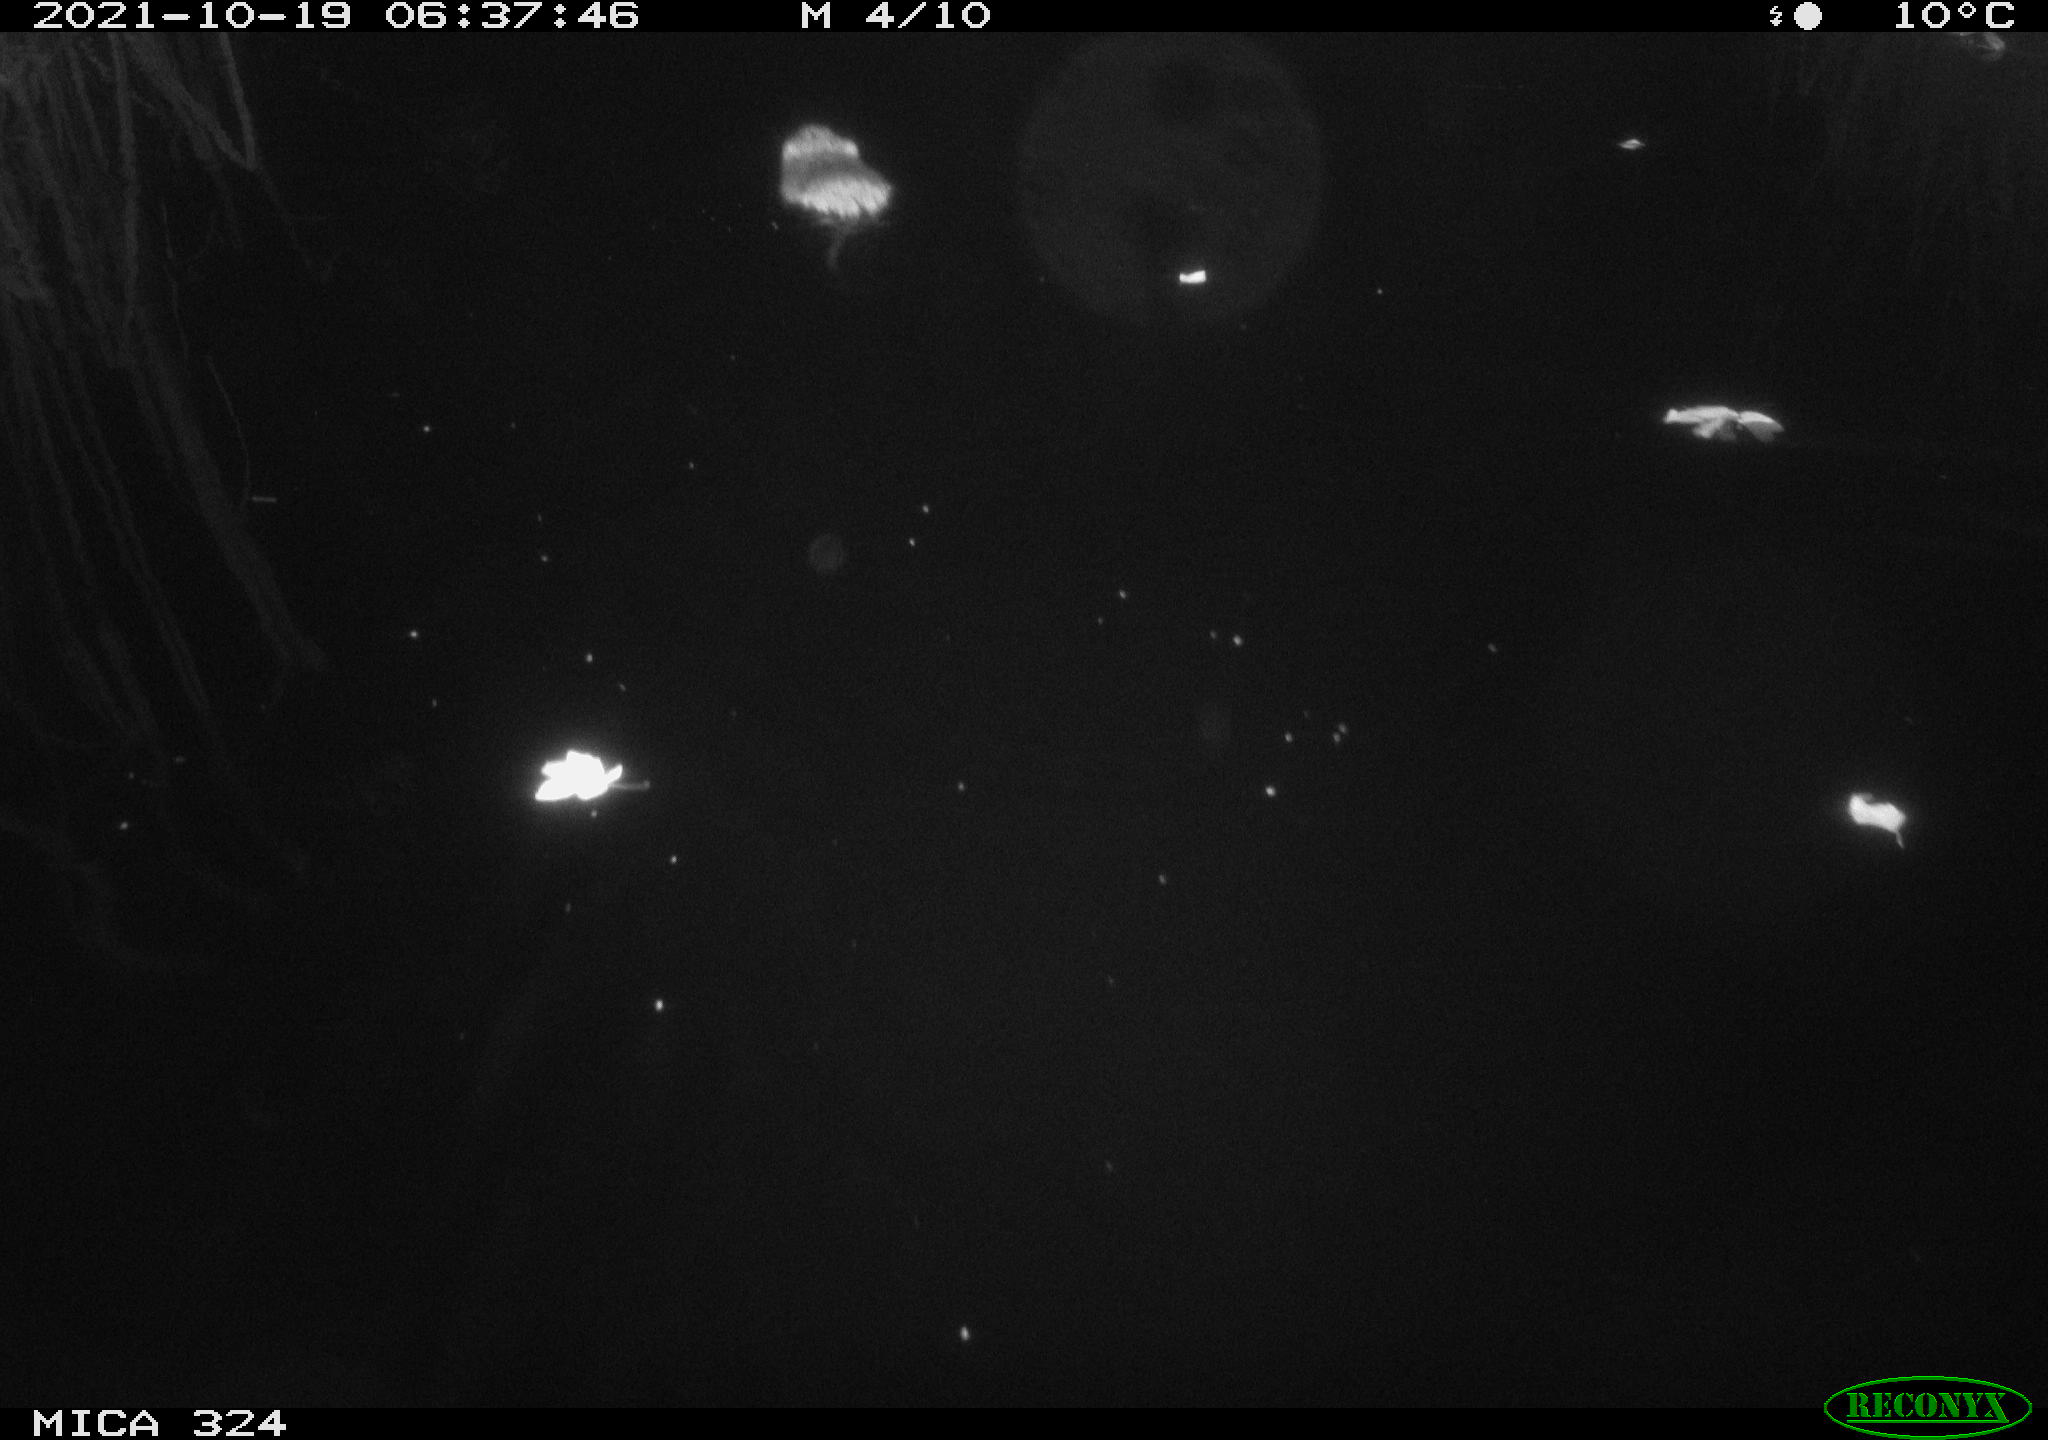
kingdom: Animalia
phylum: Chordata
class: Mammalia
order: Rodentia
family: Cricetidae
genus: Ondatra
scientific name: Ondatra zibethicus
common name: Muskrat
